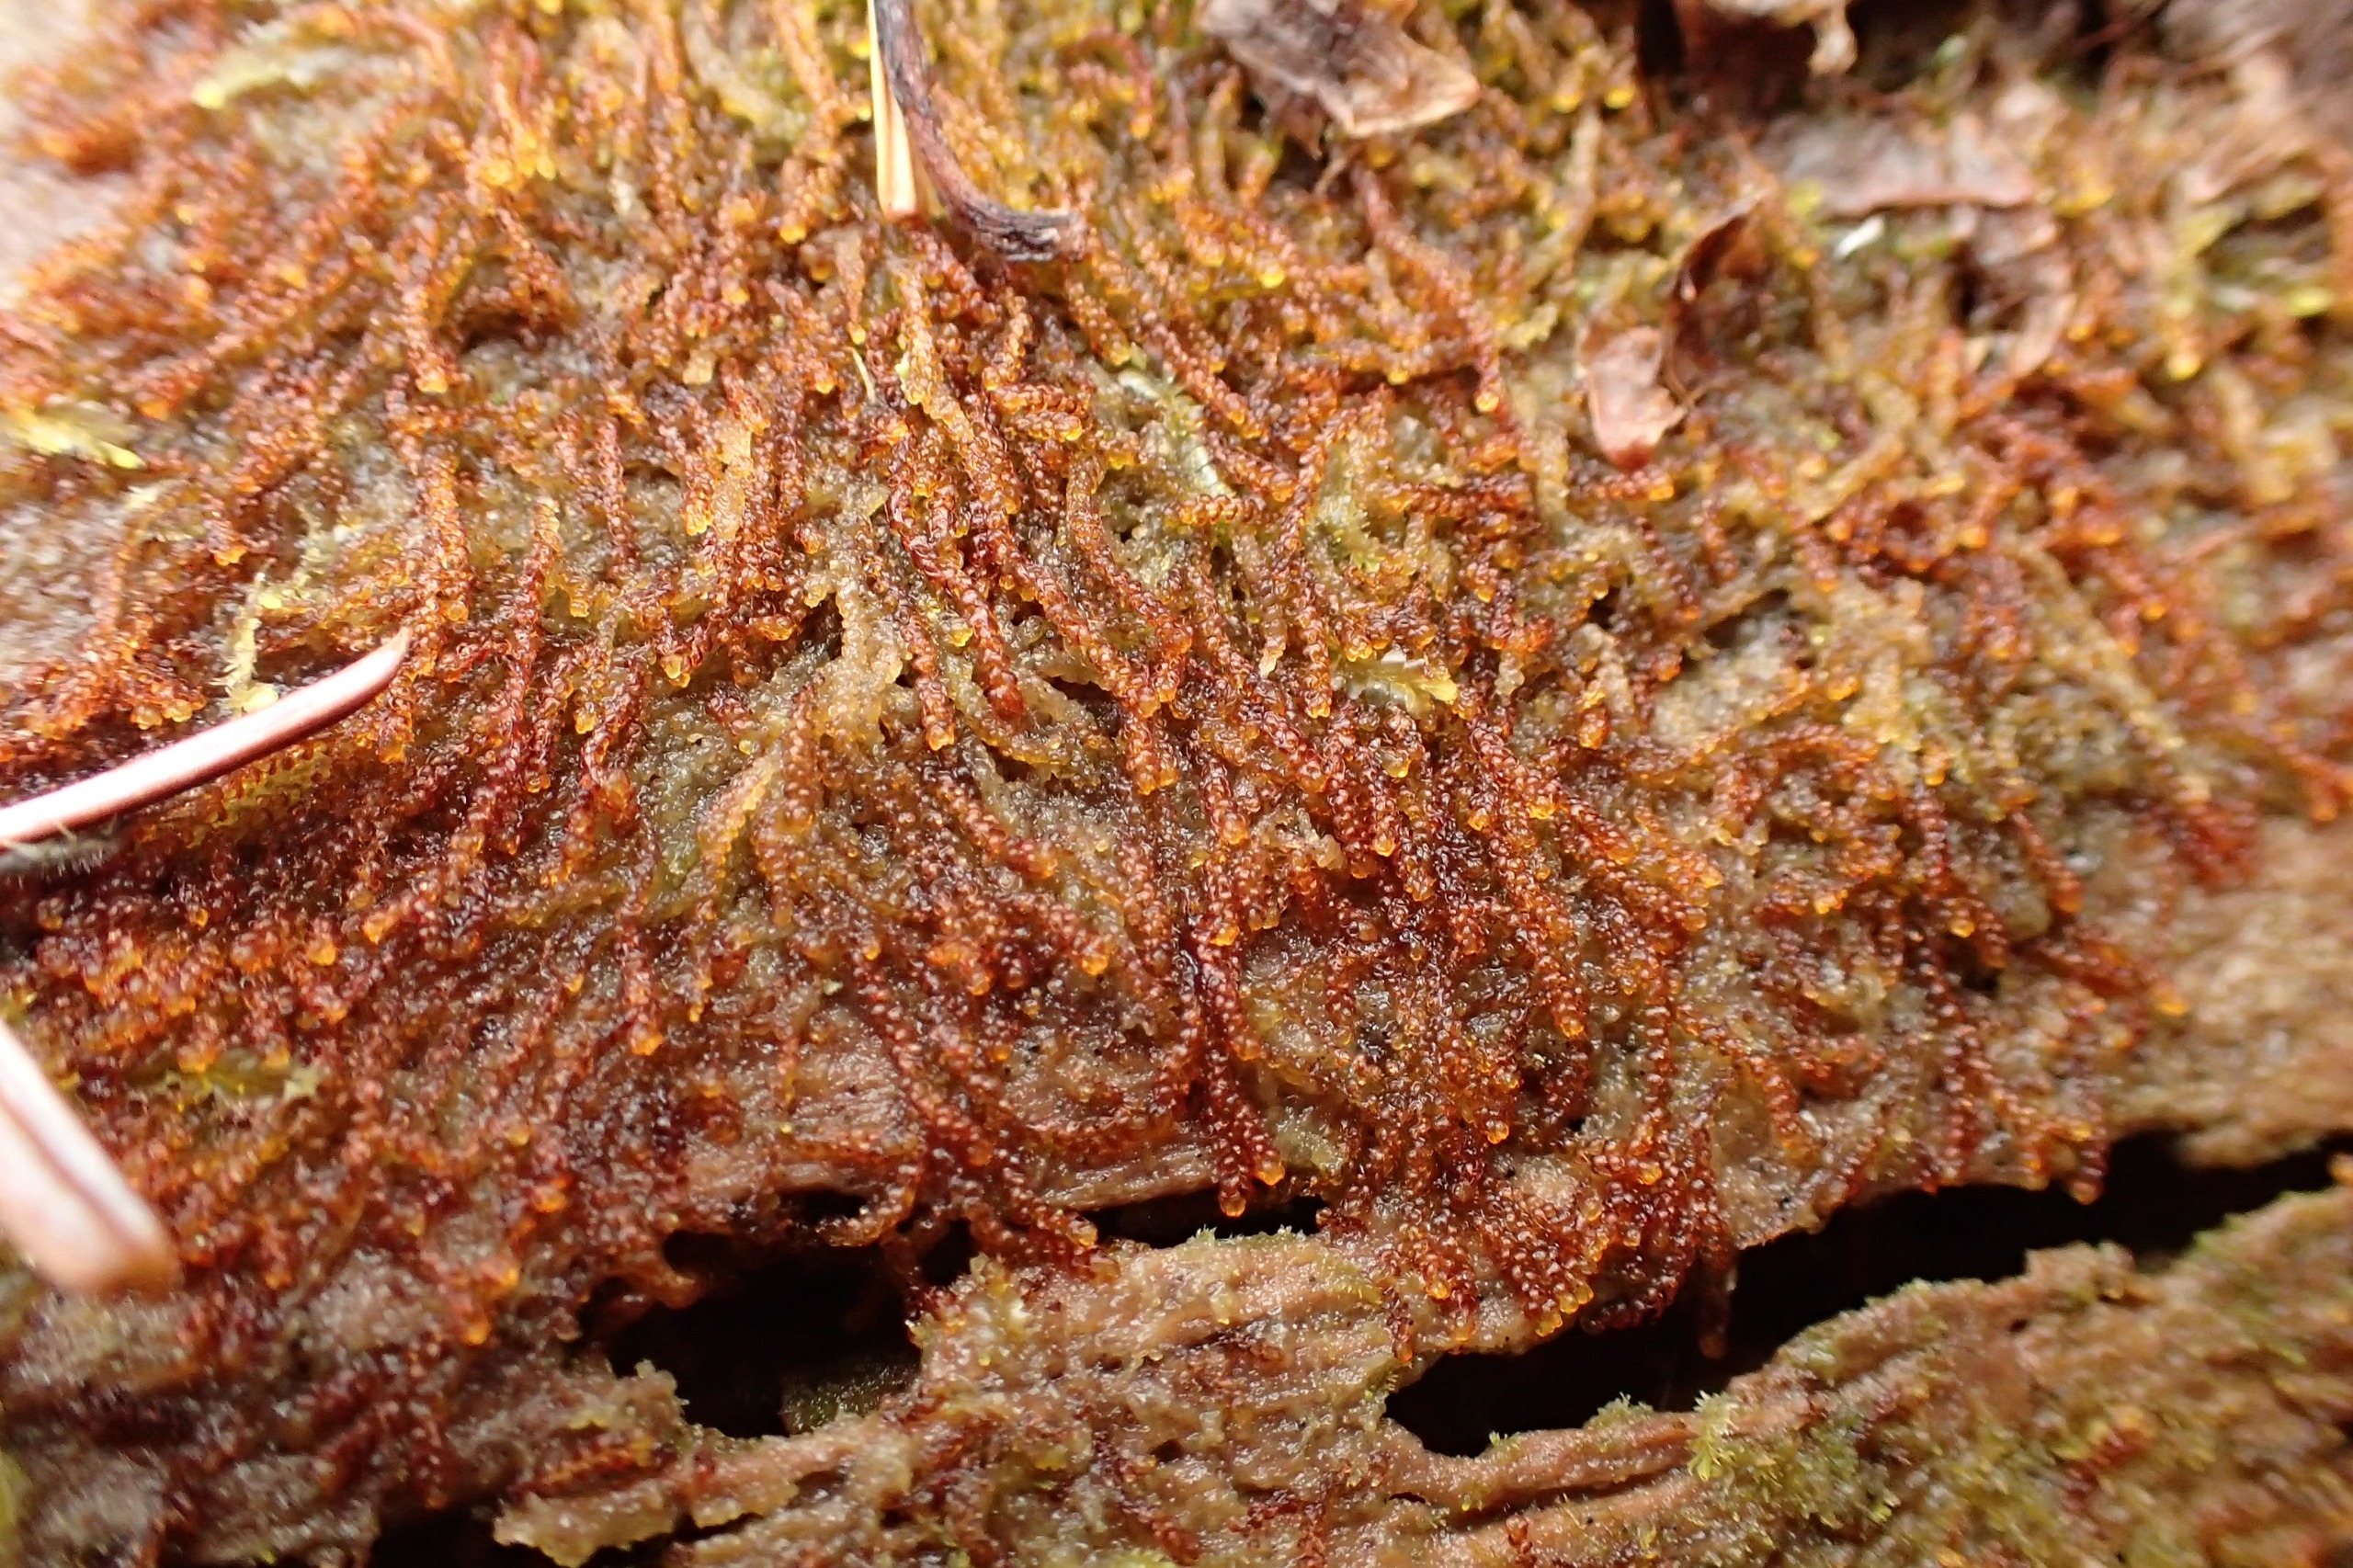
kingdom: Plantae
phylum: Marchantiophyta
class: Jungermanniopsida
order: Jungermanniales
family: Cephaloziaceae
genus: Nowellia
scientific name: Nowellia curvifolia
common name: Krumbladet stødmos
